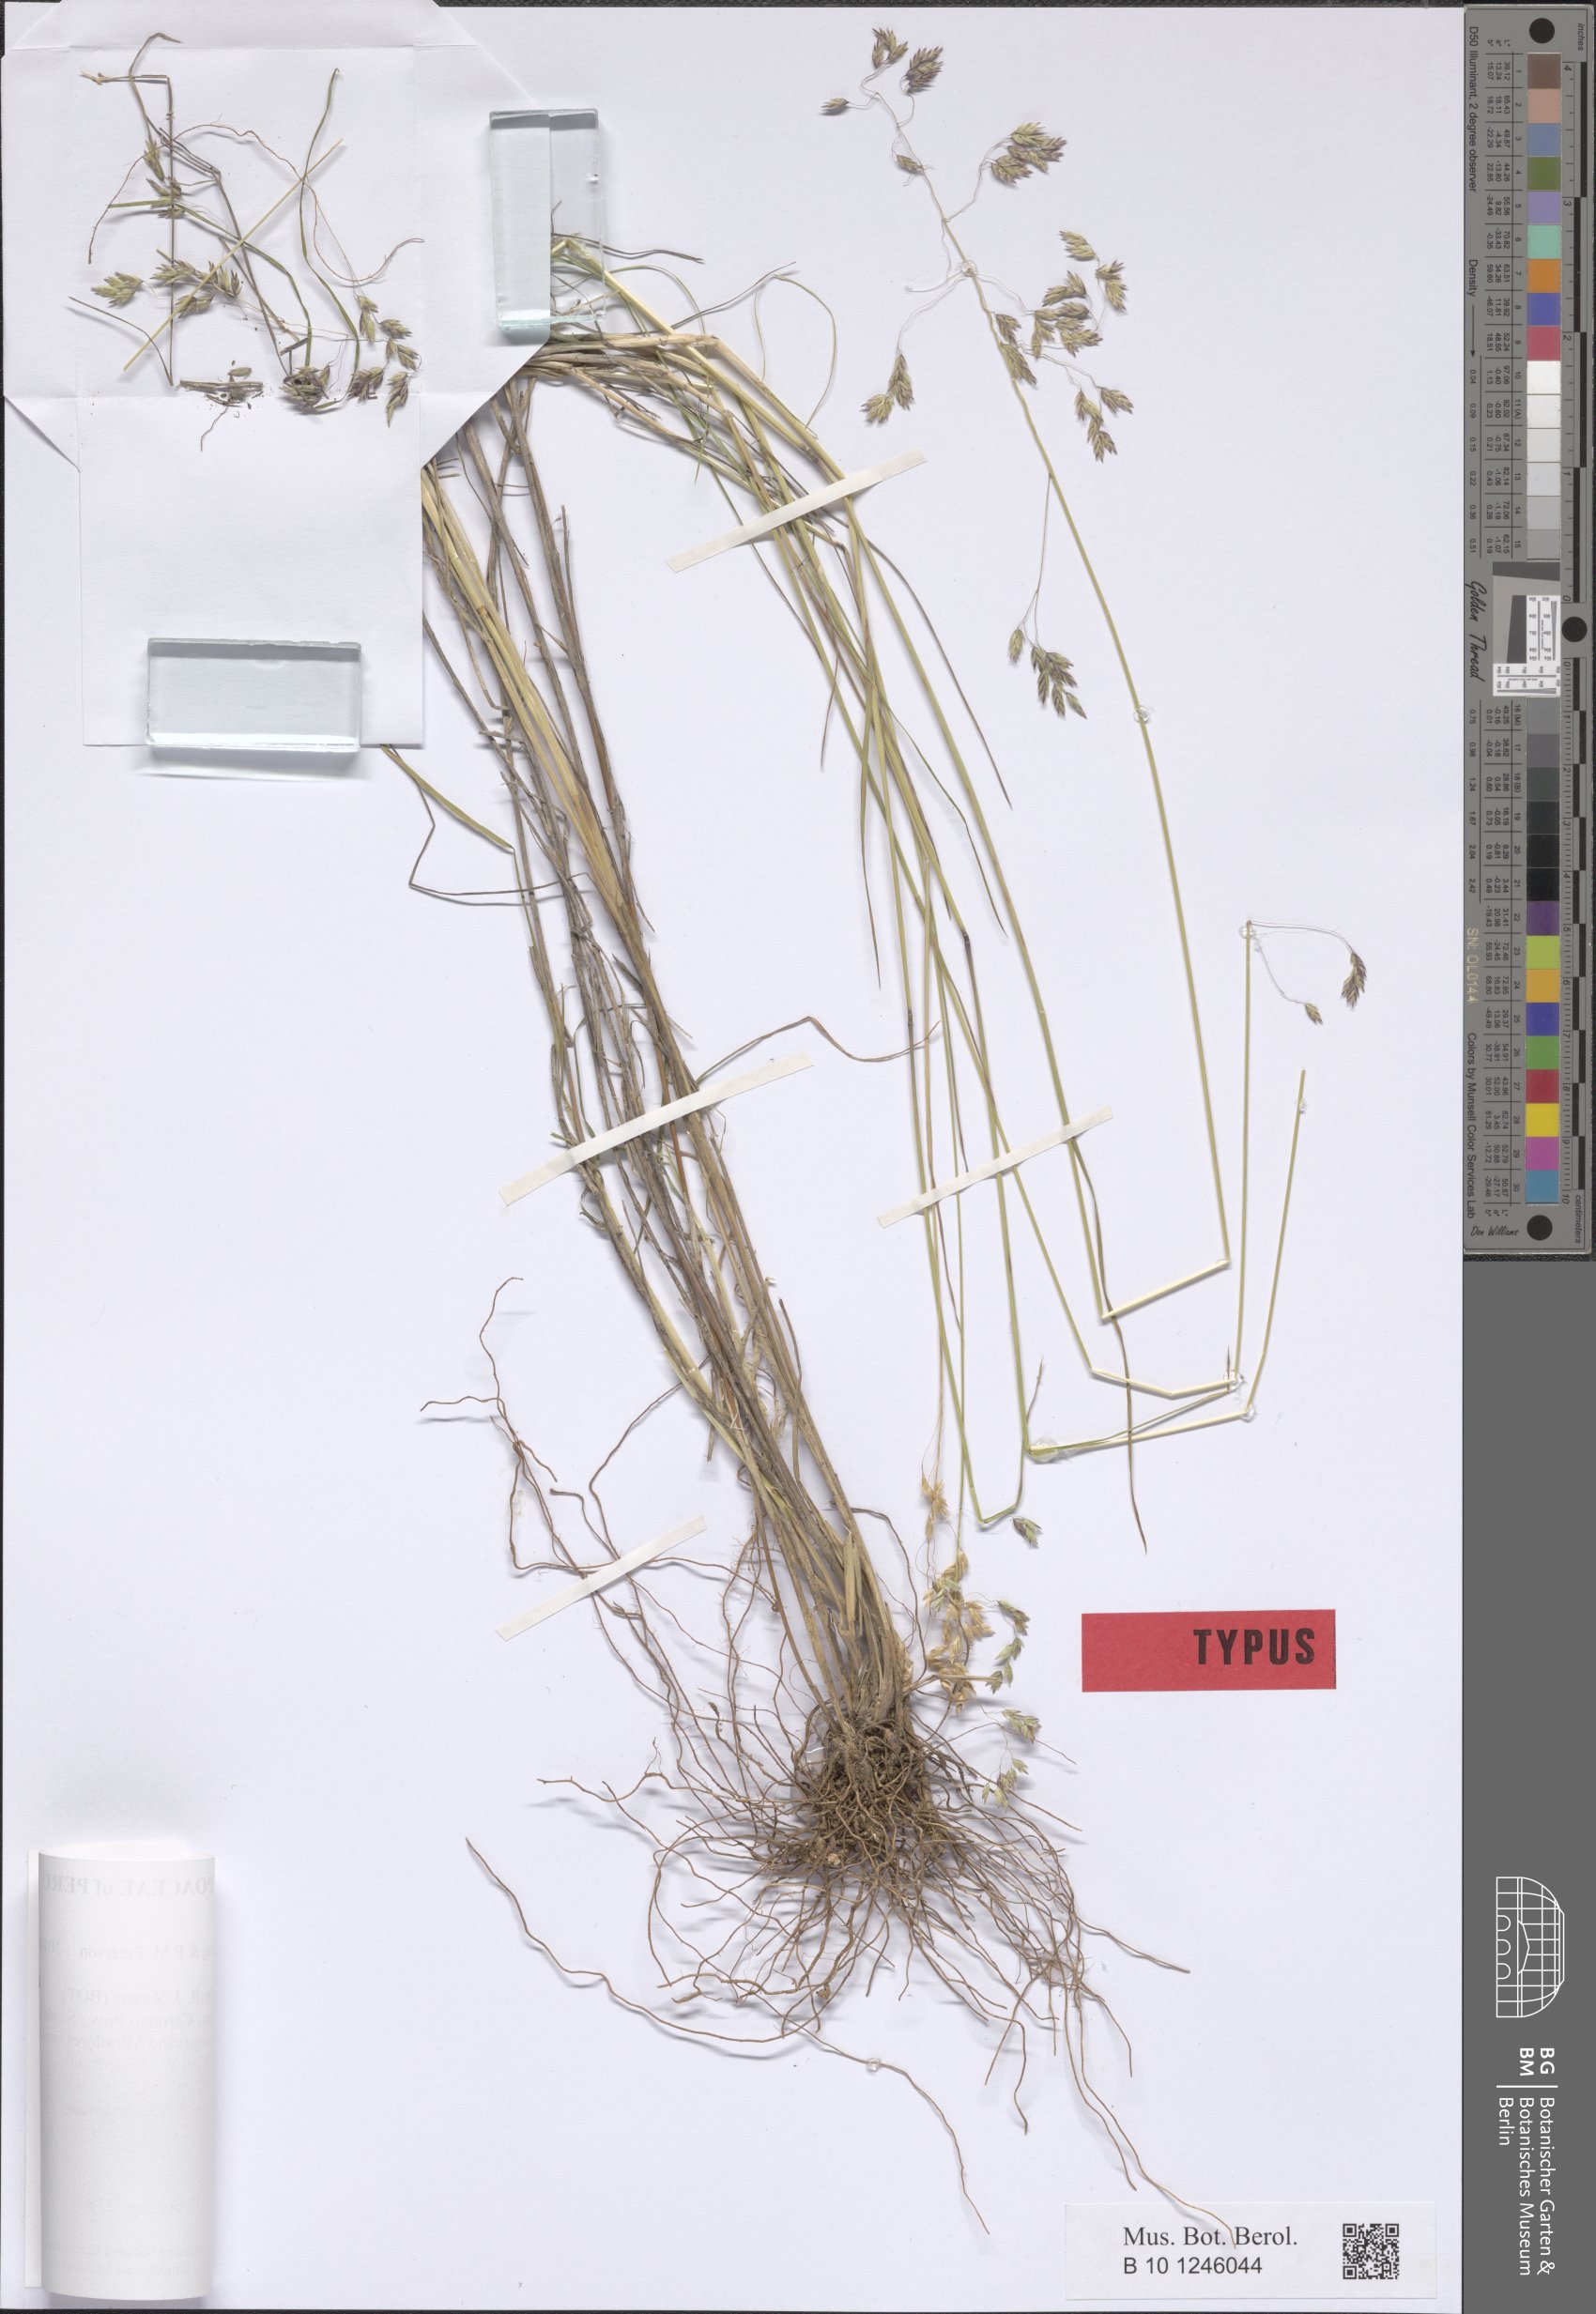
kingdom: Plantae
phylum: Tracheophyta
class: Liliopsida
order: Poales
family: Poaceae
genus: Poa
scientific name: Poa ramifera
